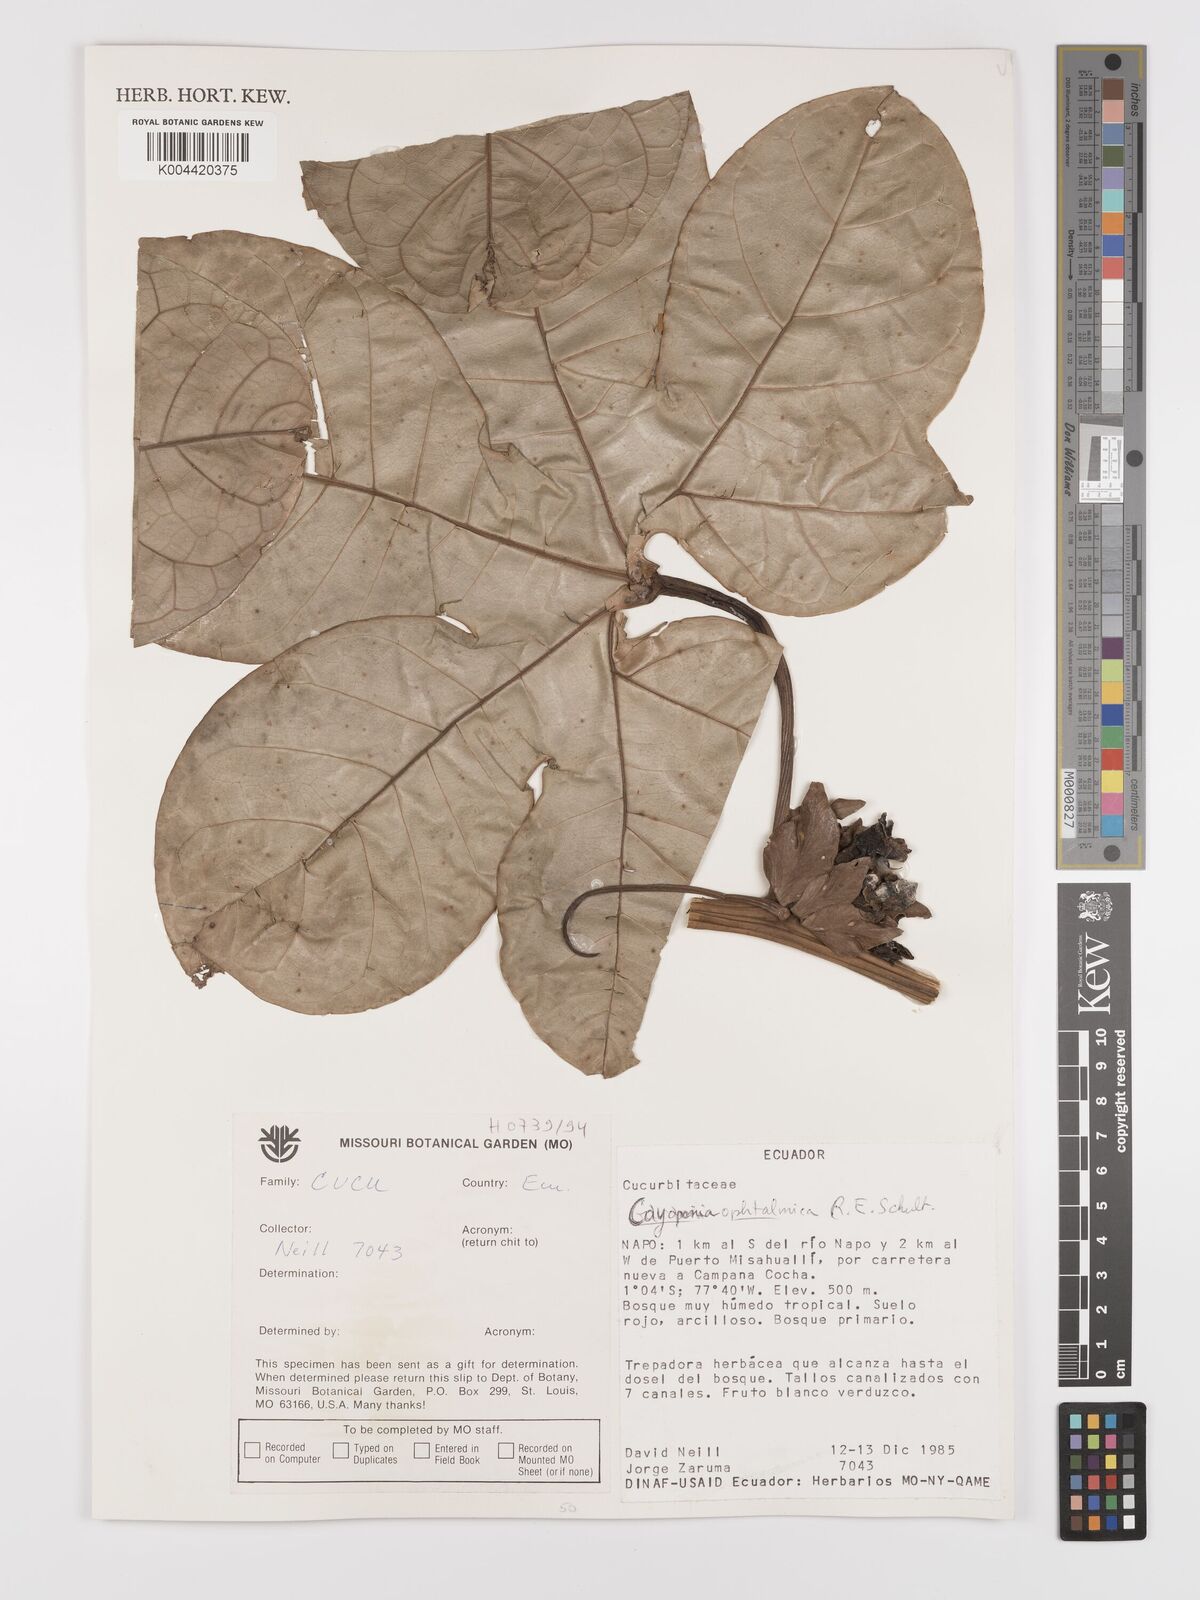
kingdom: Plantae
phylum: Tracheophyta
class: Magnoliopsida
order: Cucurbitales
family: Cucurbitaceae
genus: Cayaponia
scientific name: Cayaponia ophthalmica
